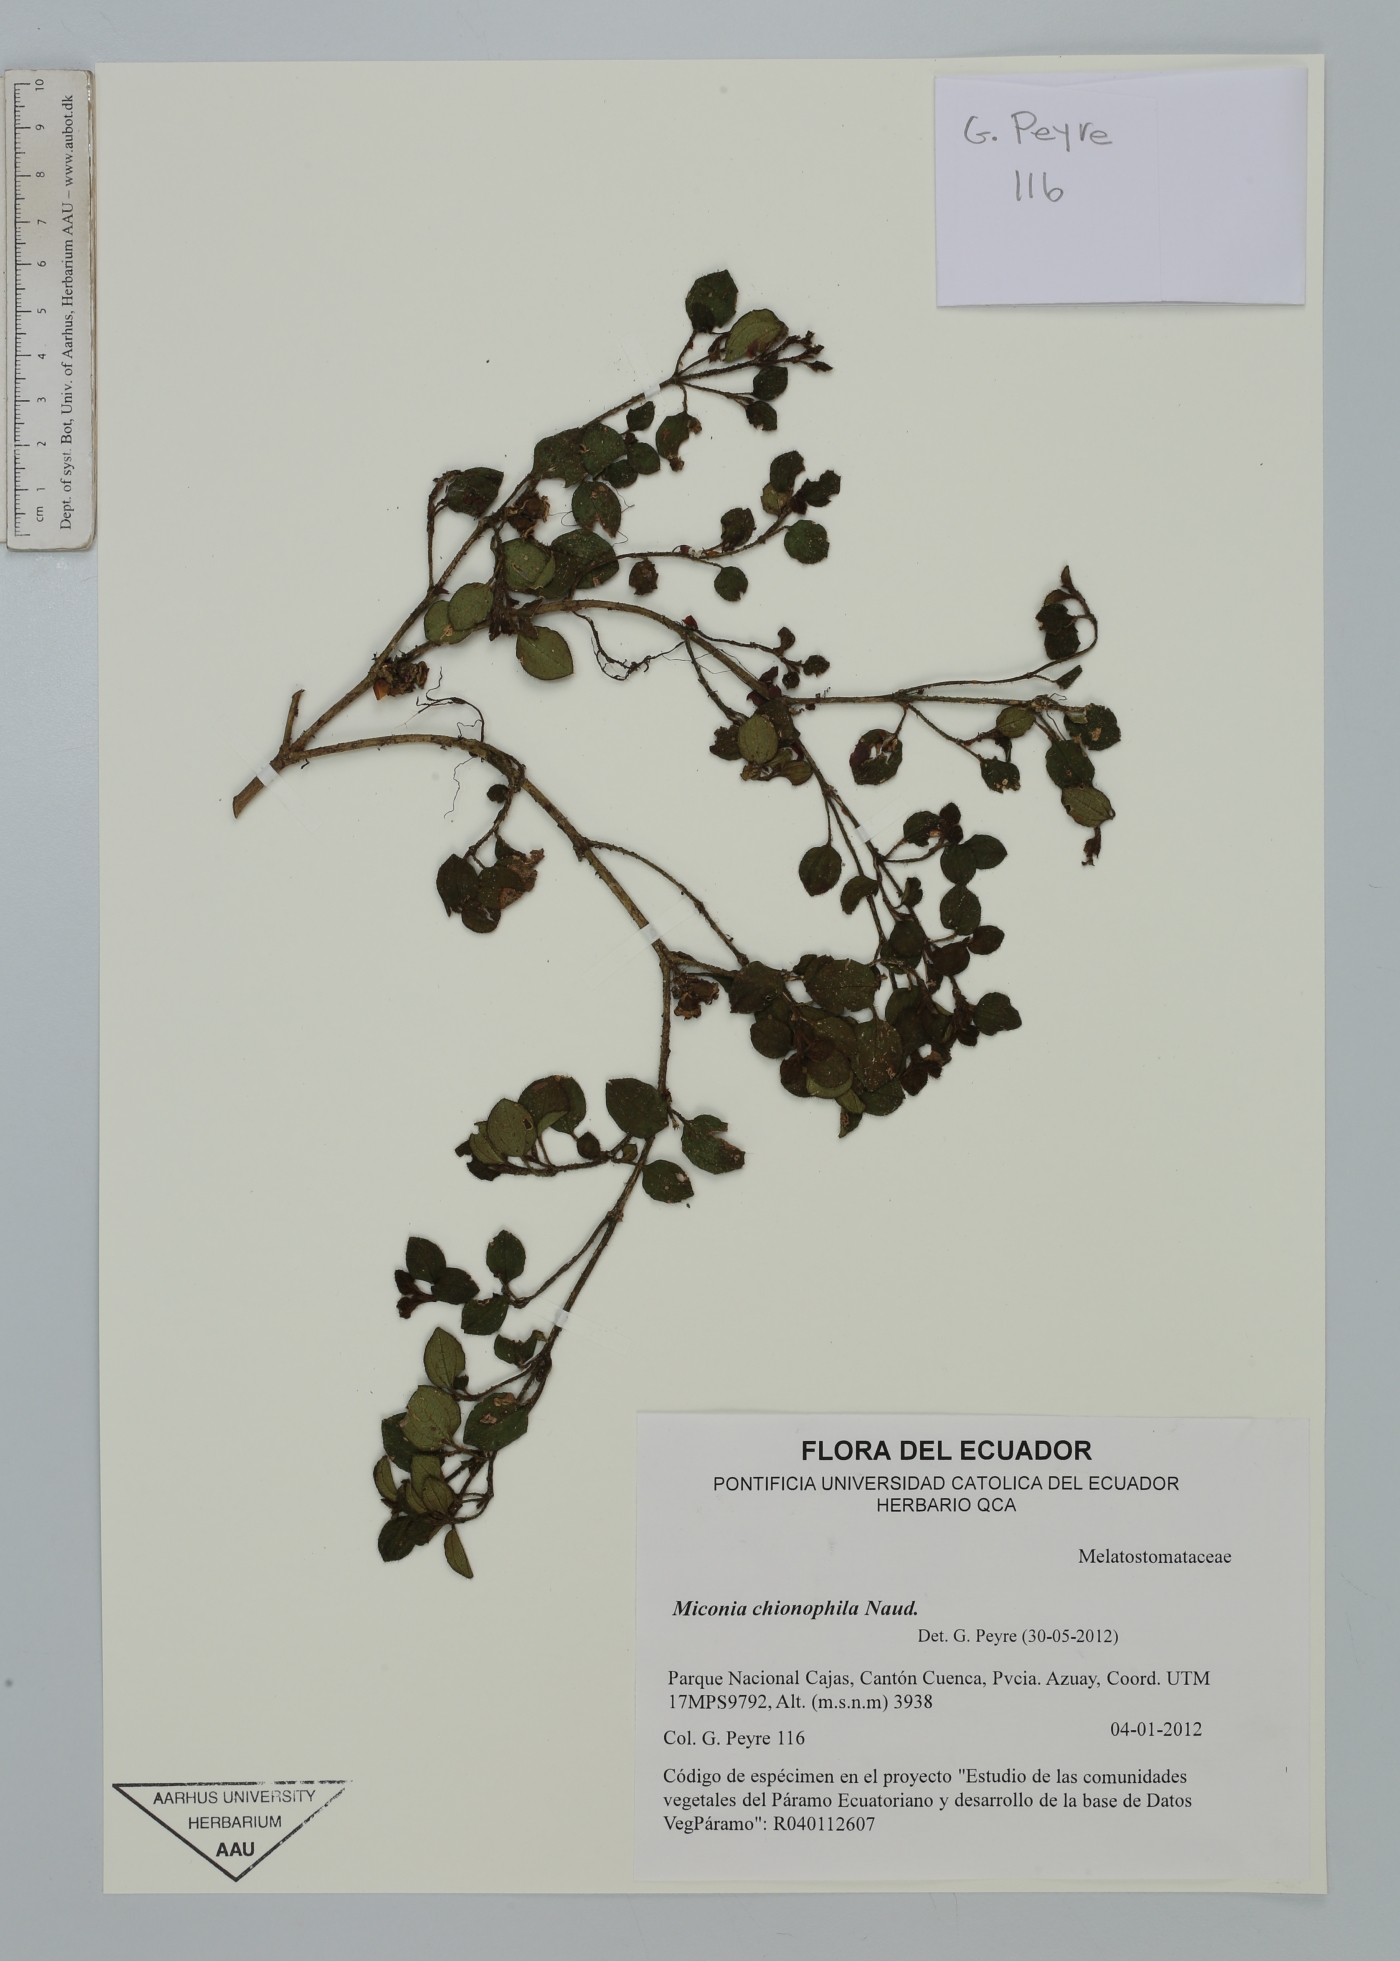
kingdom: Plantae
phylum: Tracheophyta
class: Magnoliopsida
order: Myrtales
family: Melastomataceae
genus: Miconia
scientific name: Miconia chionophila
